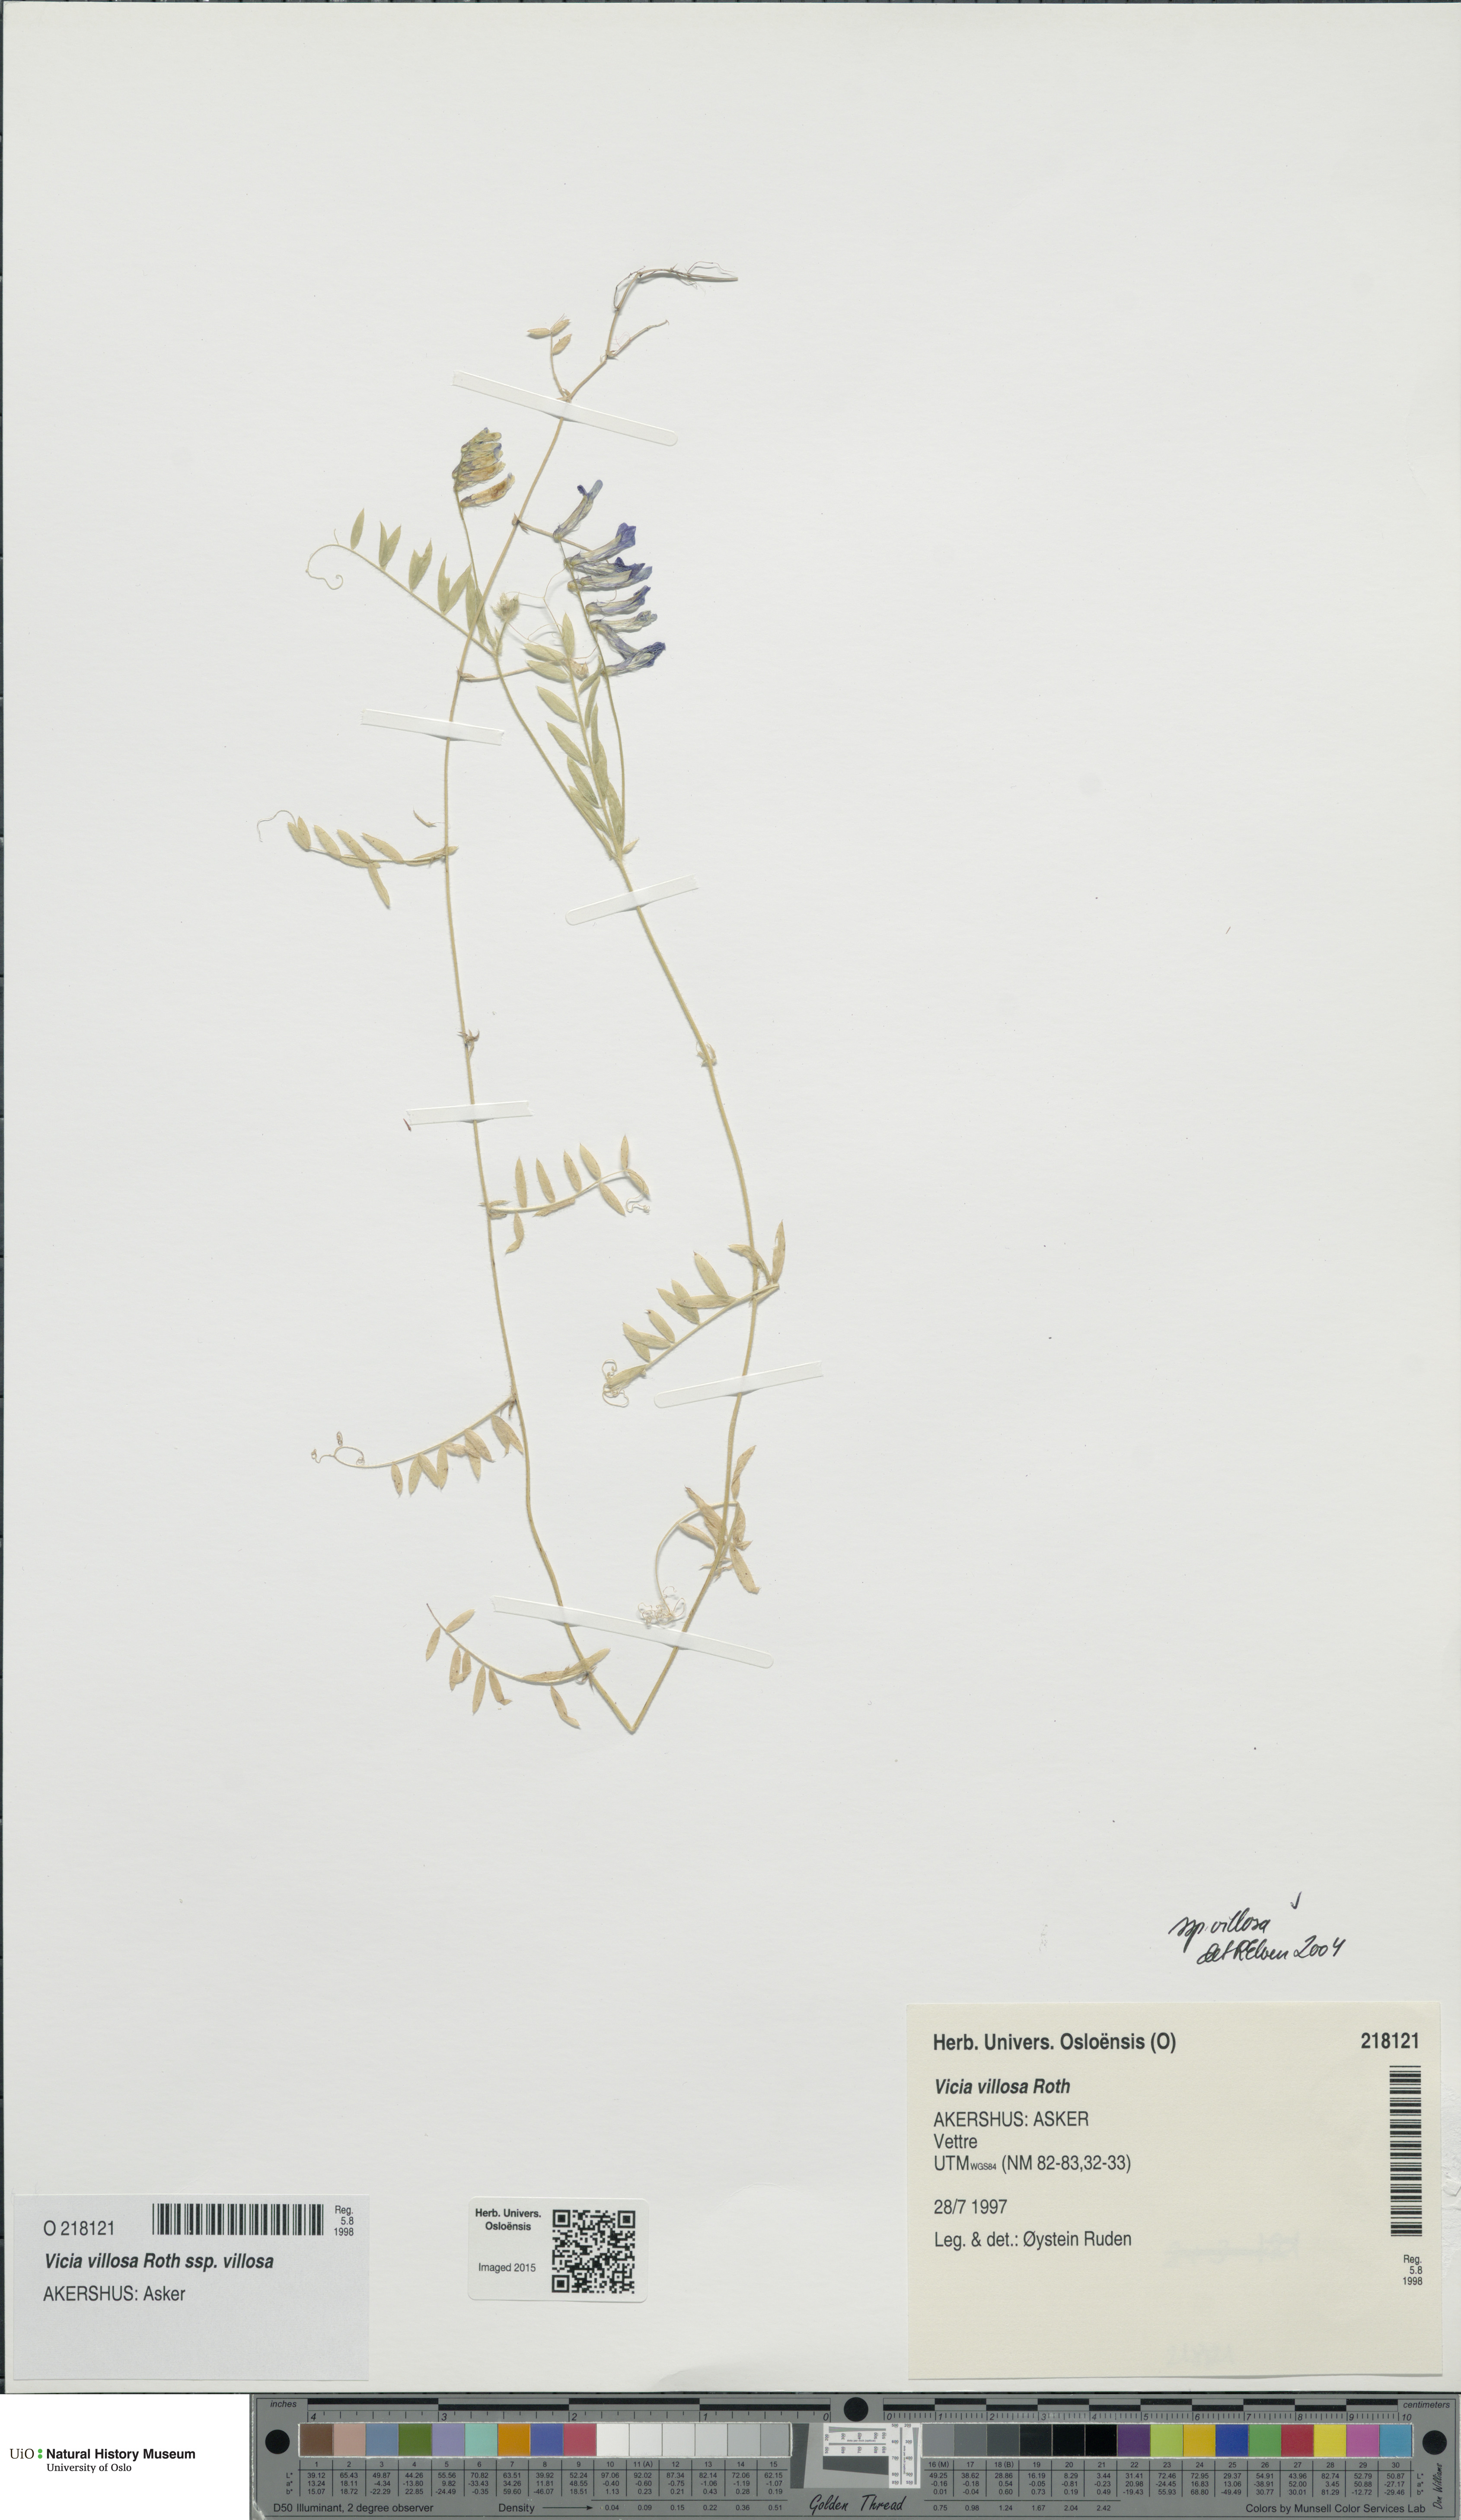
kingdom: Plantae
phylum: Tracheophyta
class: Magnoliopsida
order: Fabales
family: Fabaceae
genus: Vicia
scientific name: Vicia villosa
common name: Fodder vetch
